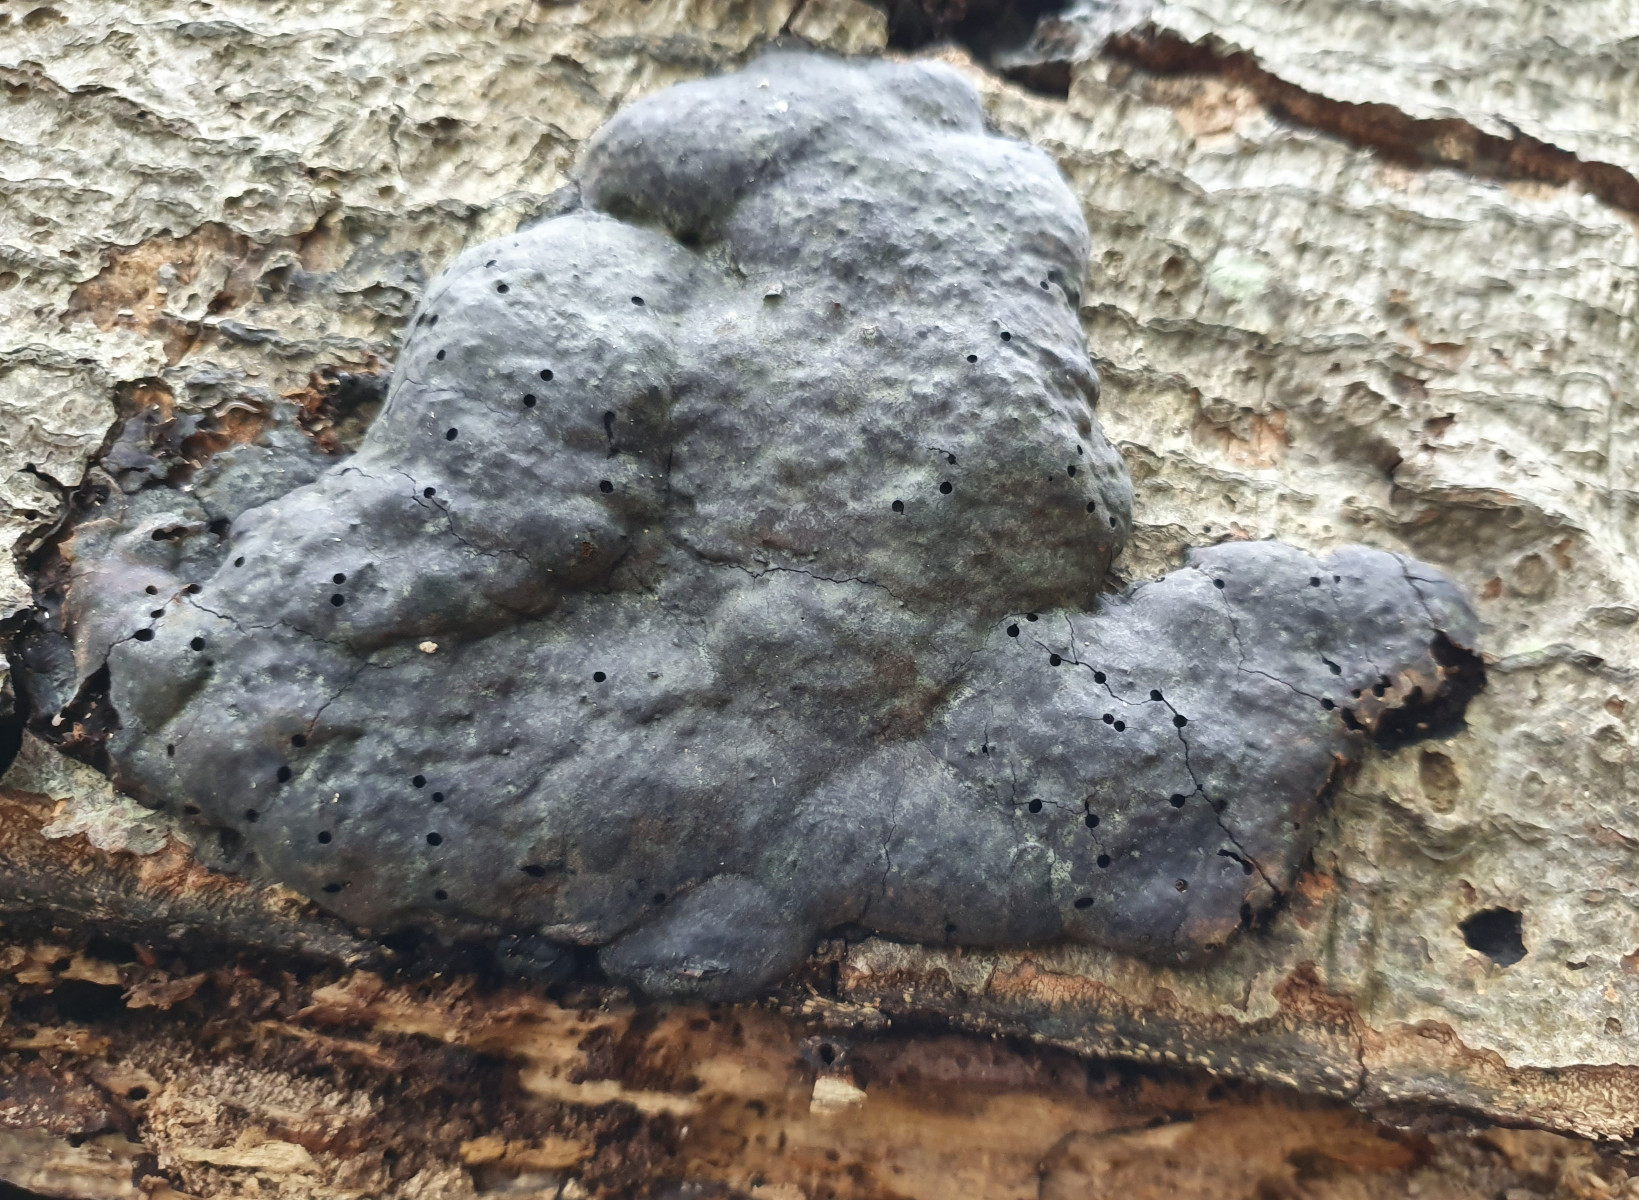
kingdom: Fungi
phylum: Basidiomycota
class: Agaricomycetes
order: Polyporales
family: Polyporaceae
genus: Fomes
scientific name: Fomes fomentarius
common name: tøndersvamp
